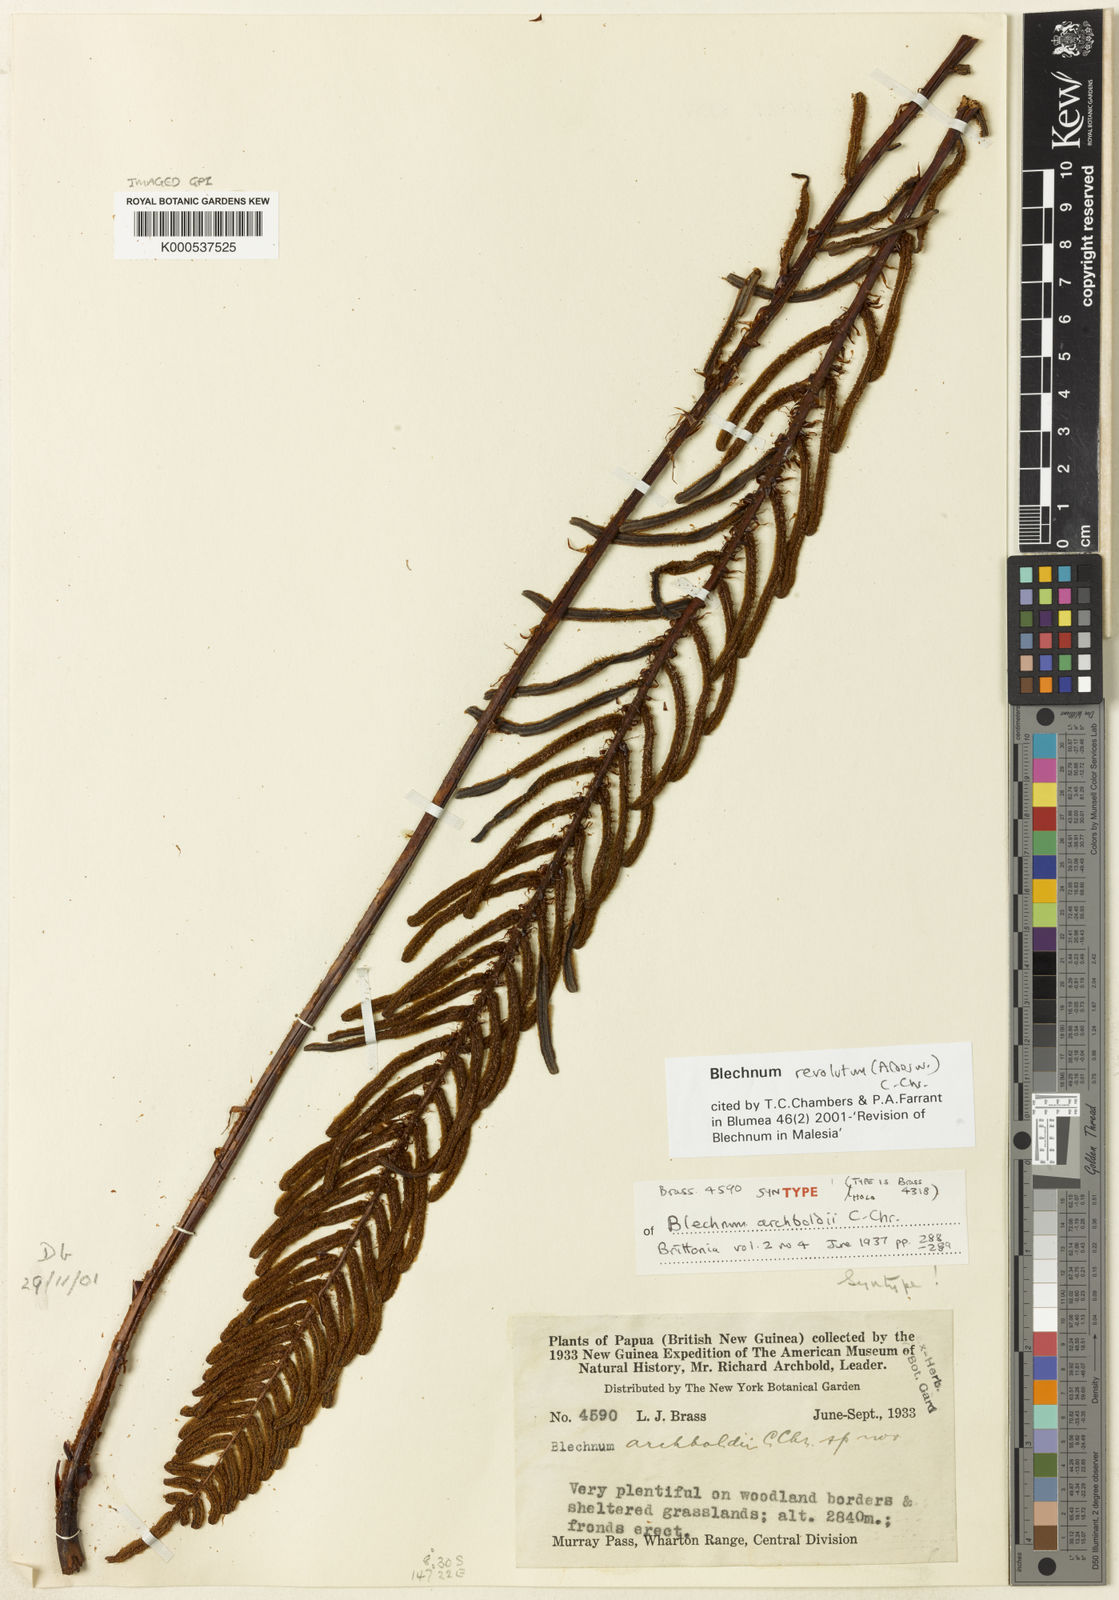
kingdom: Plantae
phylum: Tracheophyta
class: Polypodiopsida
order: Polypodiales
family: Blechnaceae
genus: Parablechnum
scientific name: Parablechnum revolutum
